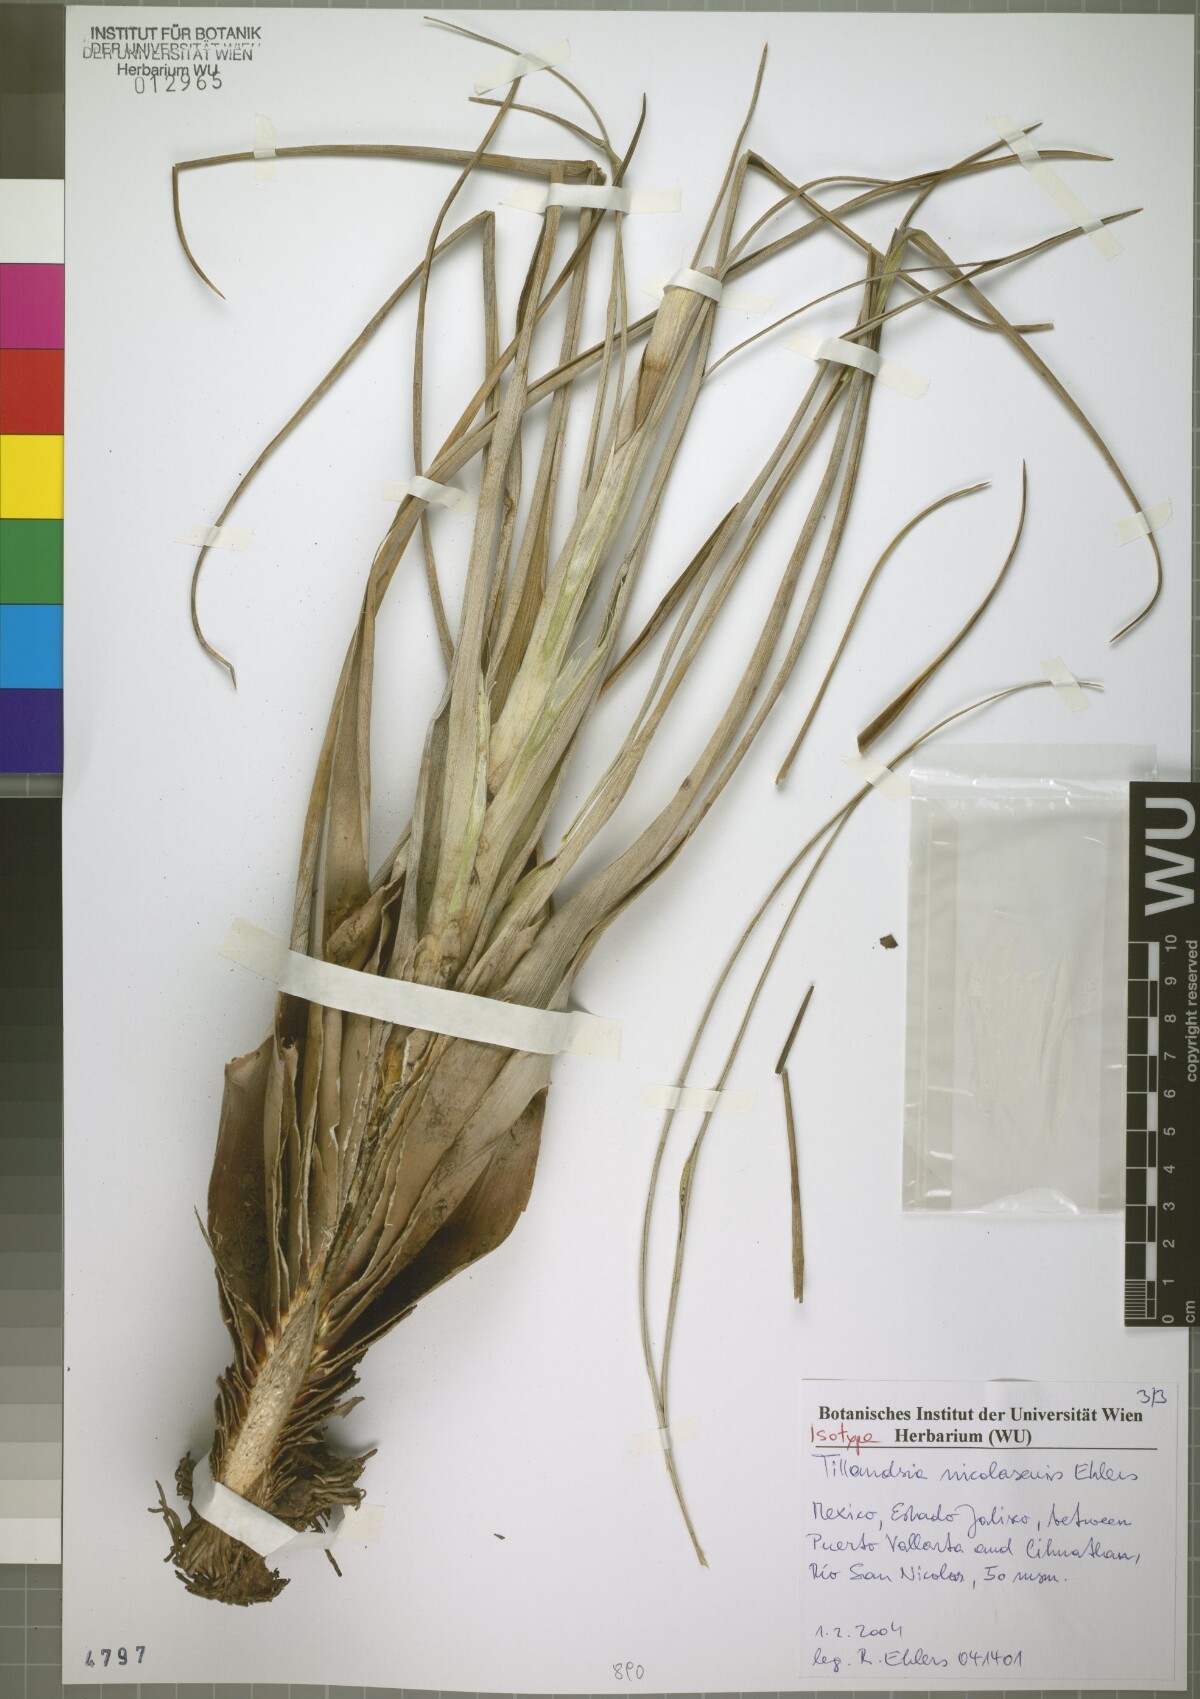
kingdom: Plantae
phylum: Tracheophyta
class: Liliopsida
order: Poales
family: Bromeliaceae
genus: Tillandsia
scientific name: Tillandsia nicolasensis
